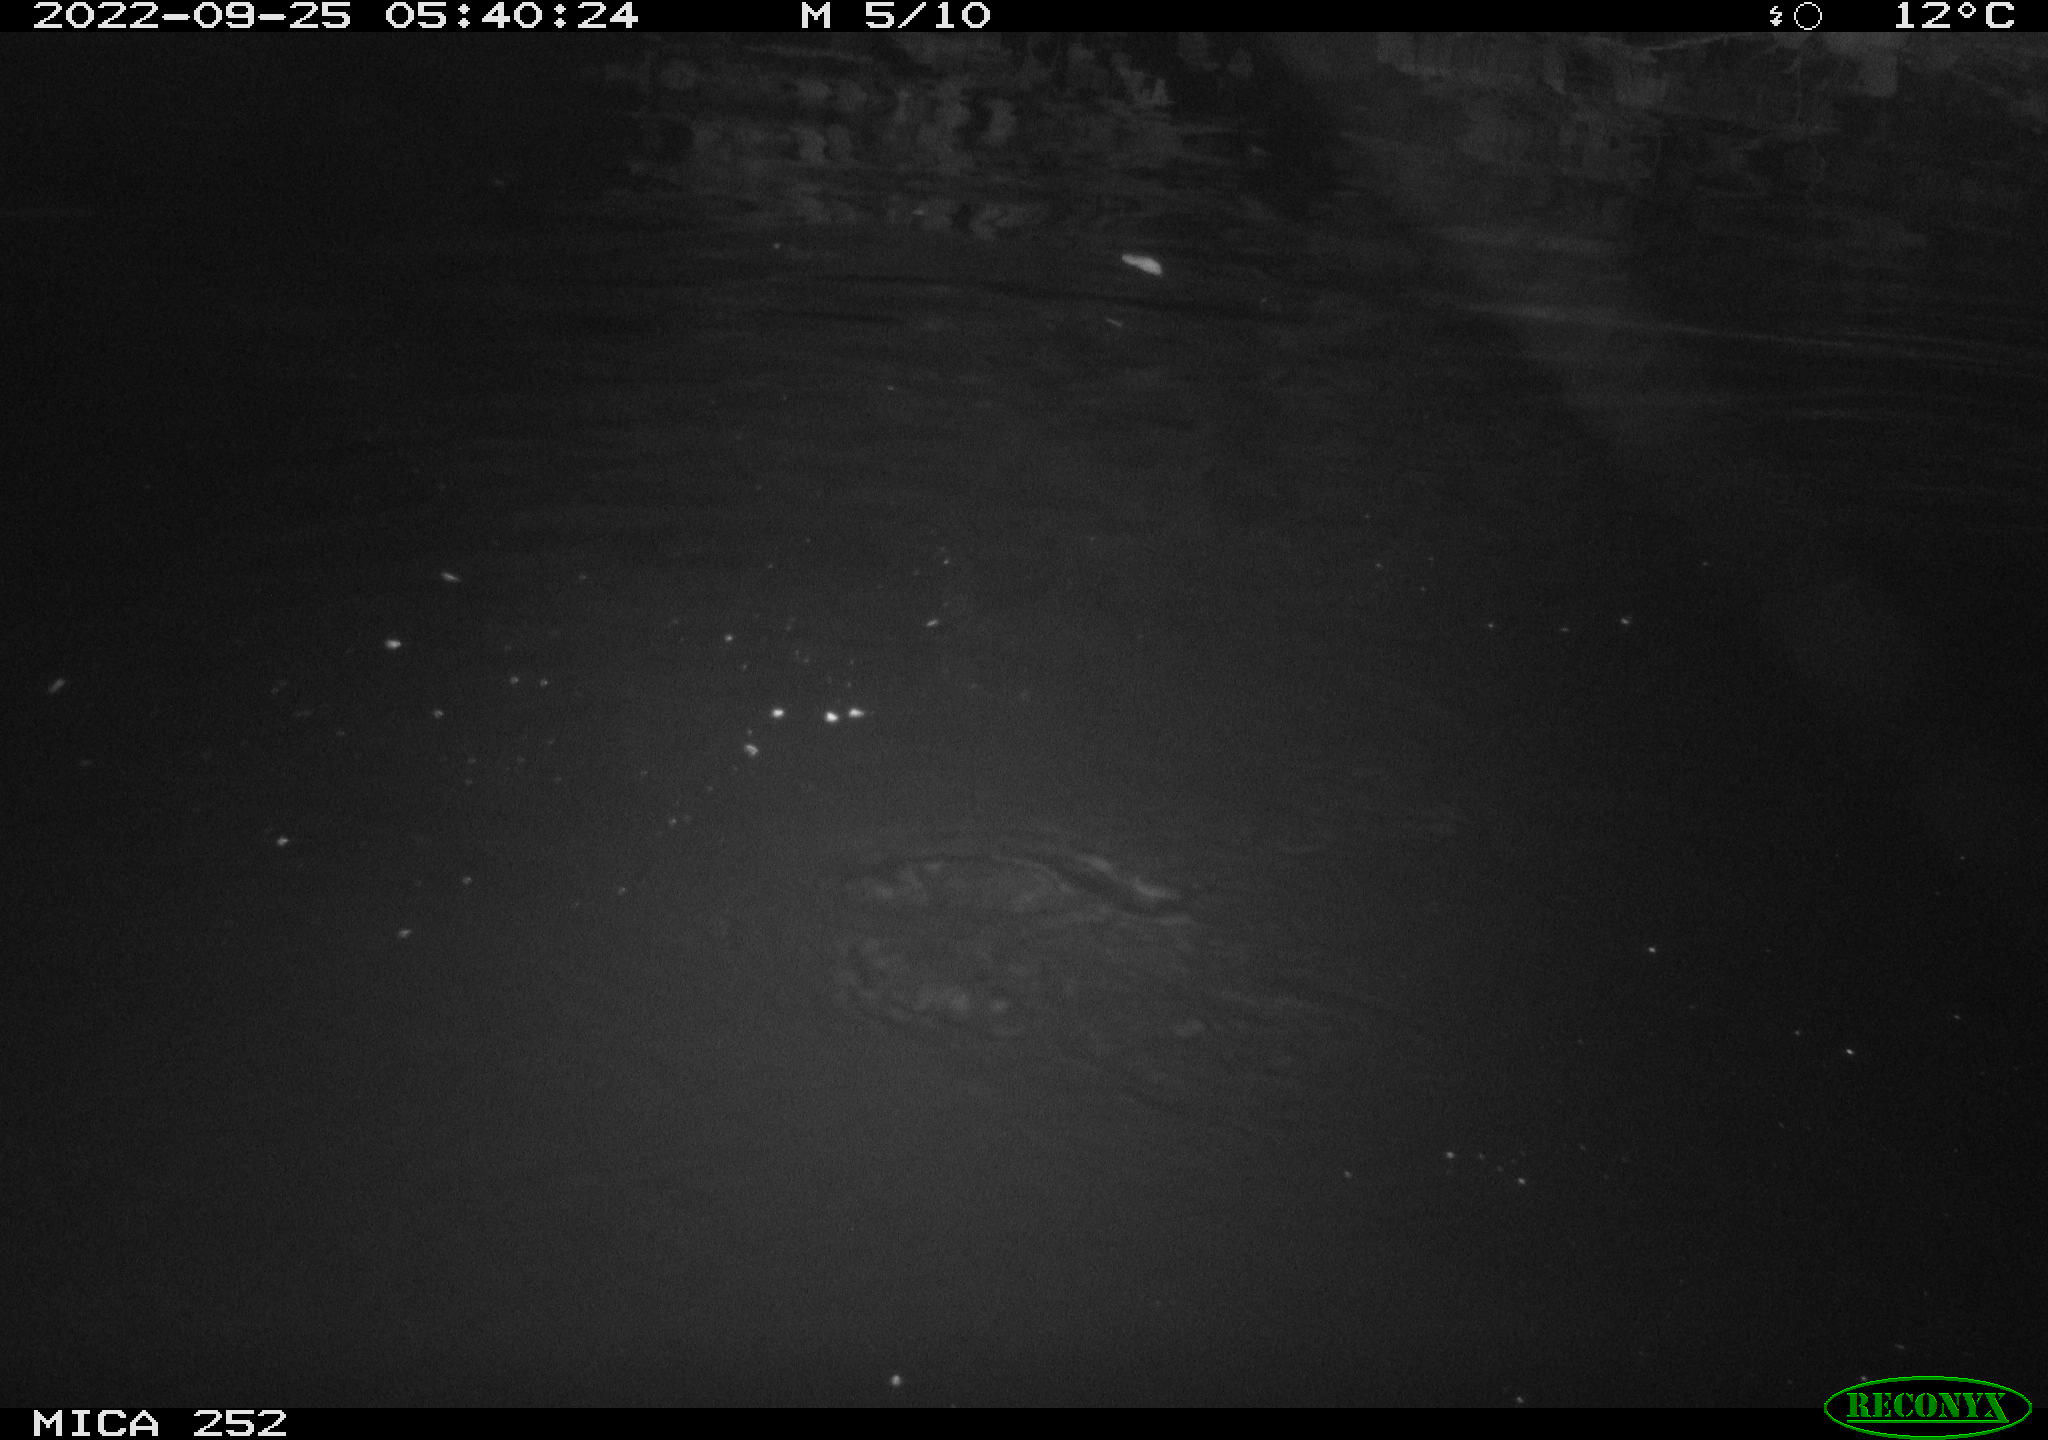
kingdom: Animalia
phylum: Chordata
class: Mammalia
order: Rodentia
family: Castoridae
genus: Castor
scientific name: Castor fiber
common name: Eurasian beaver
